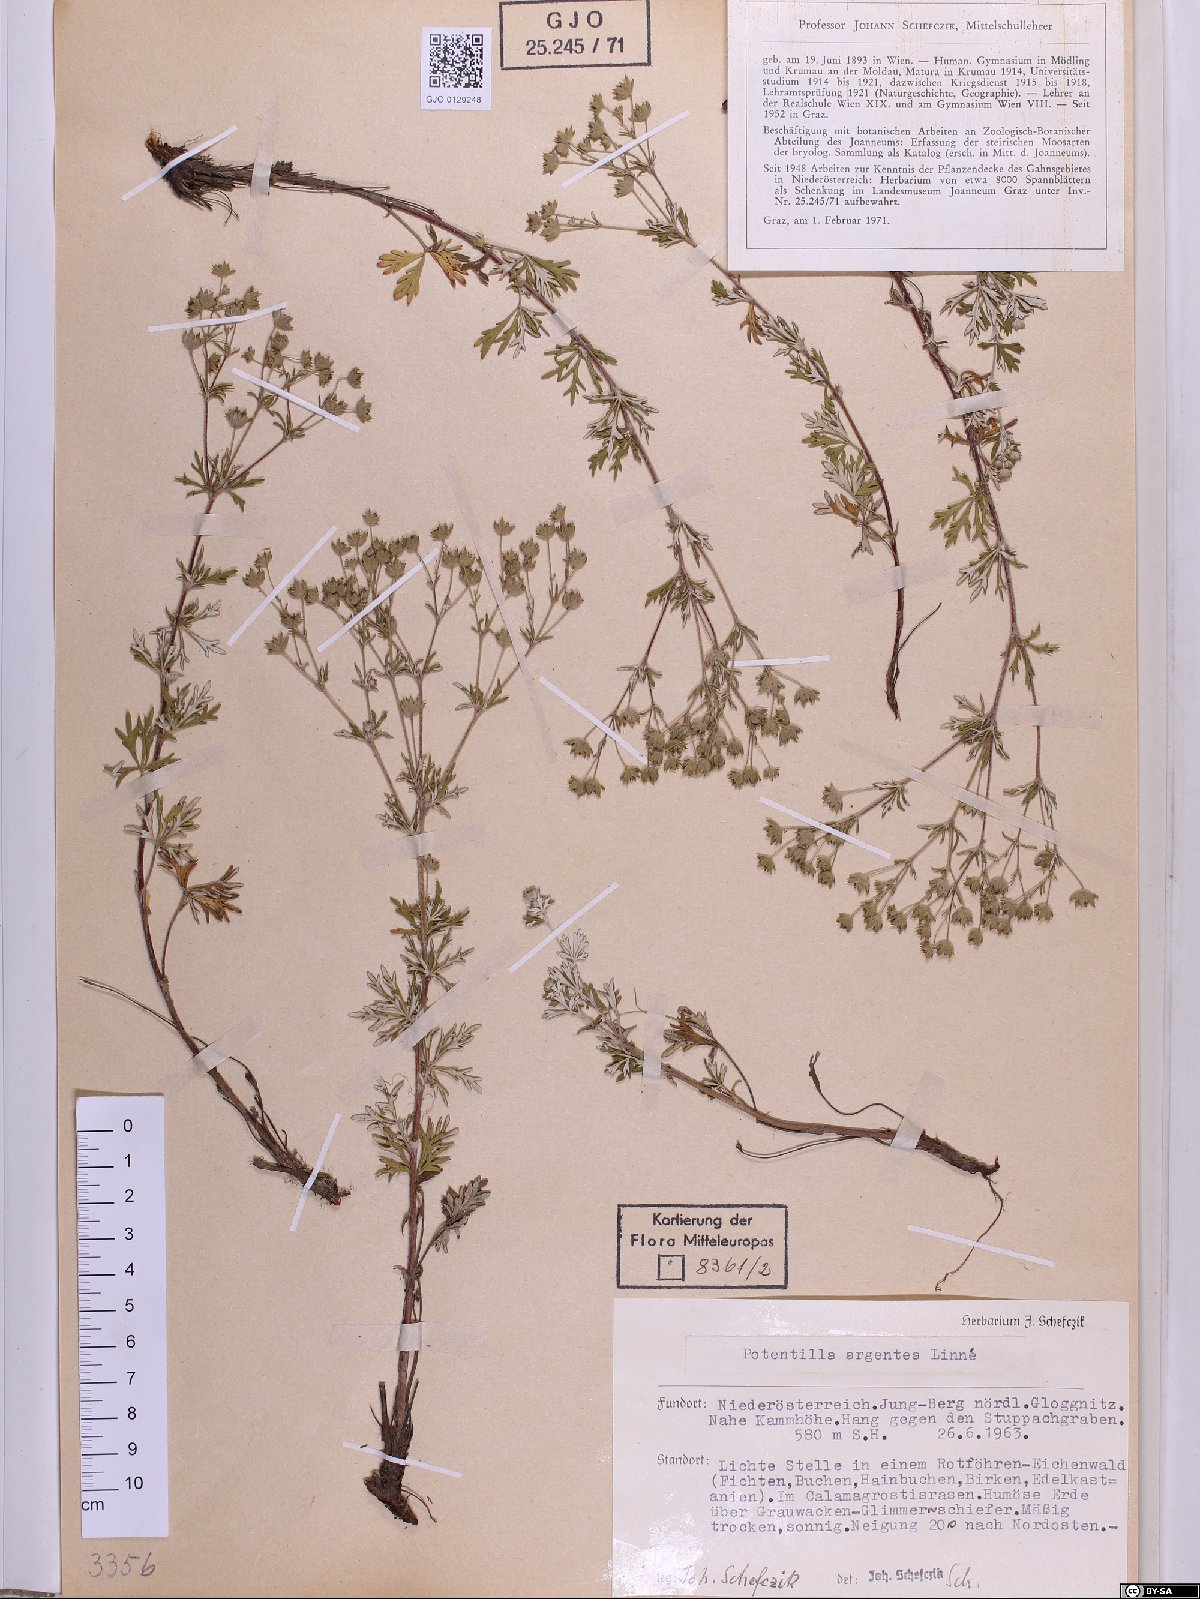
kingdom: Plantae
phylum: Tracheophyta
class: Magnoliopsida
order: Rosales
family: Rosaceae
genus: Potentilla
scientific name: Potentilla argentea
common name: Hoary cinquefoil
